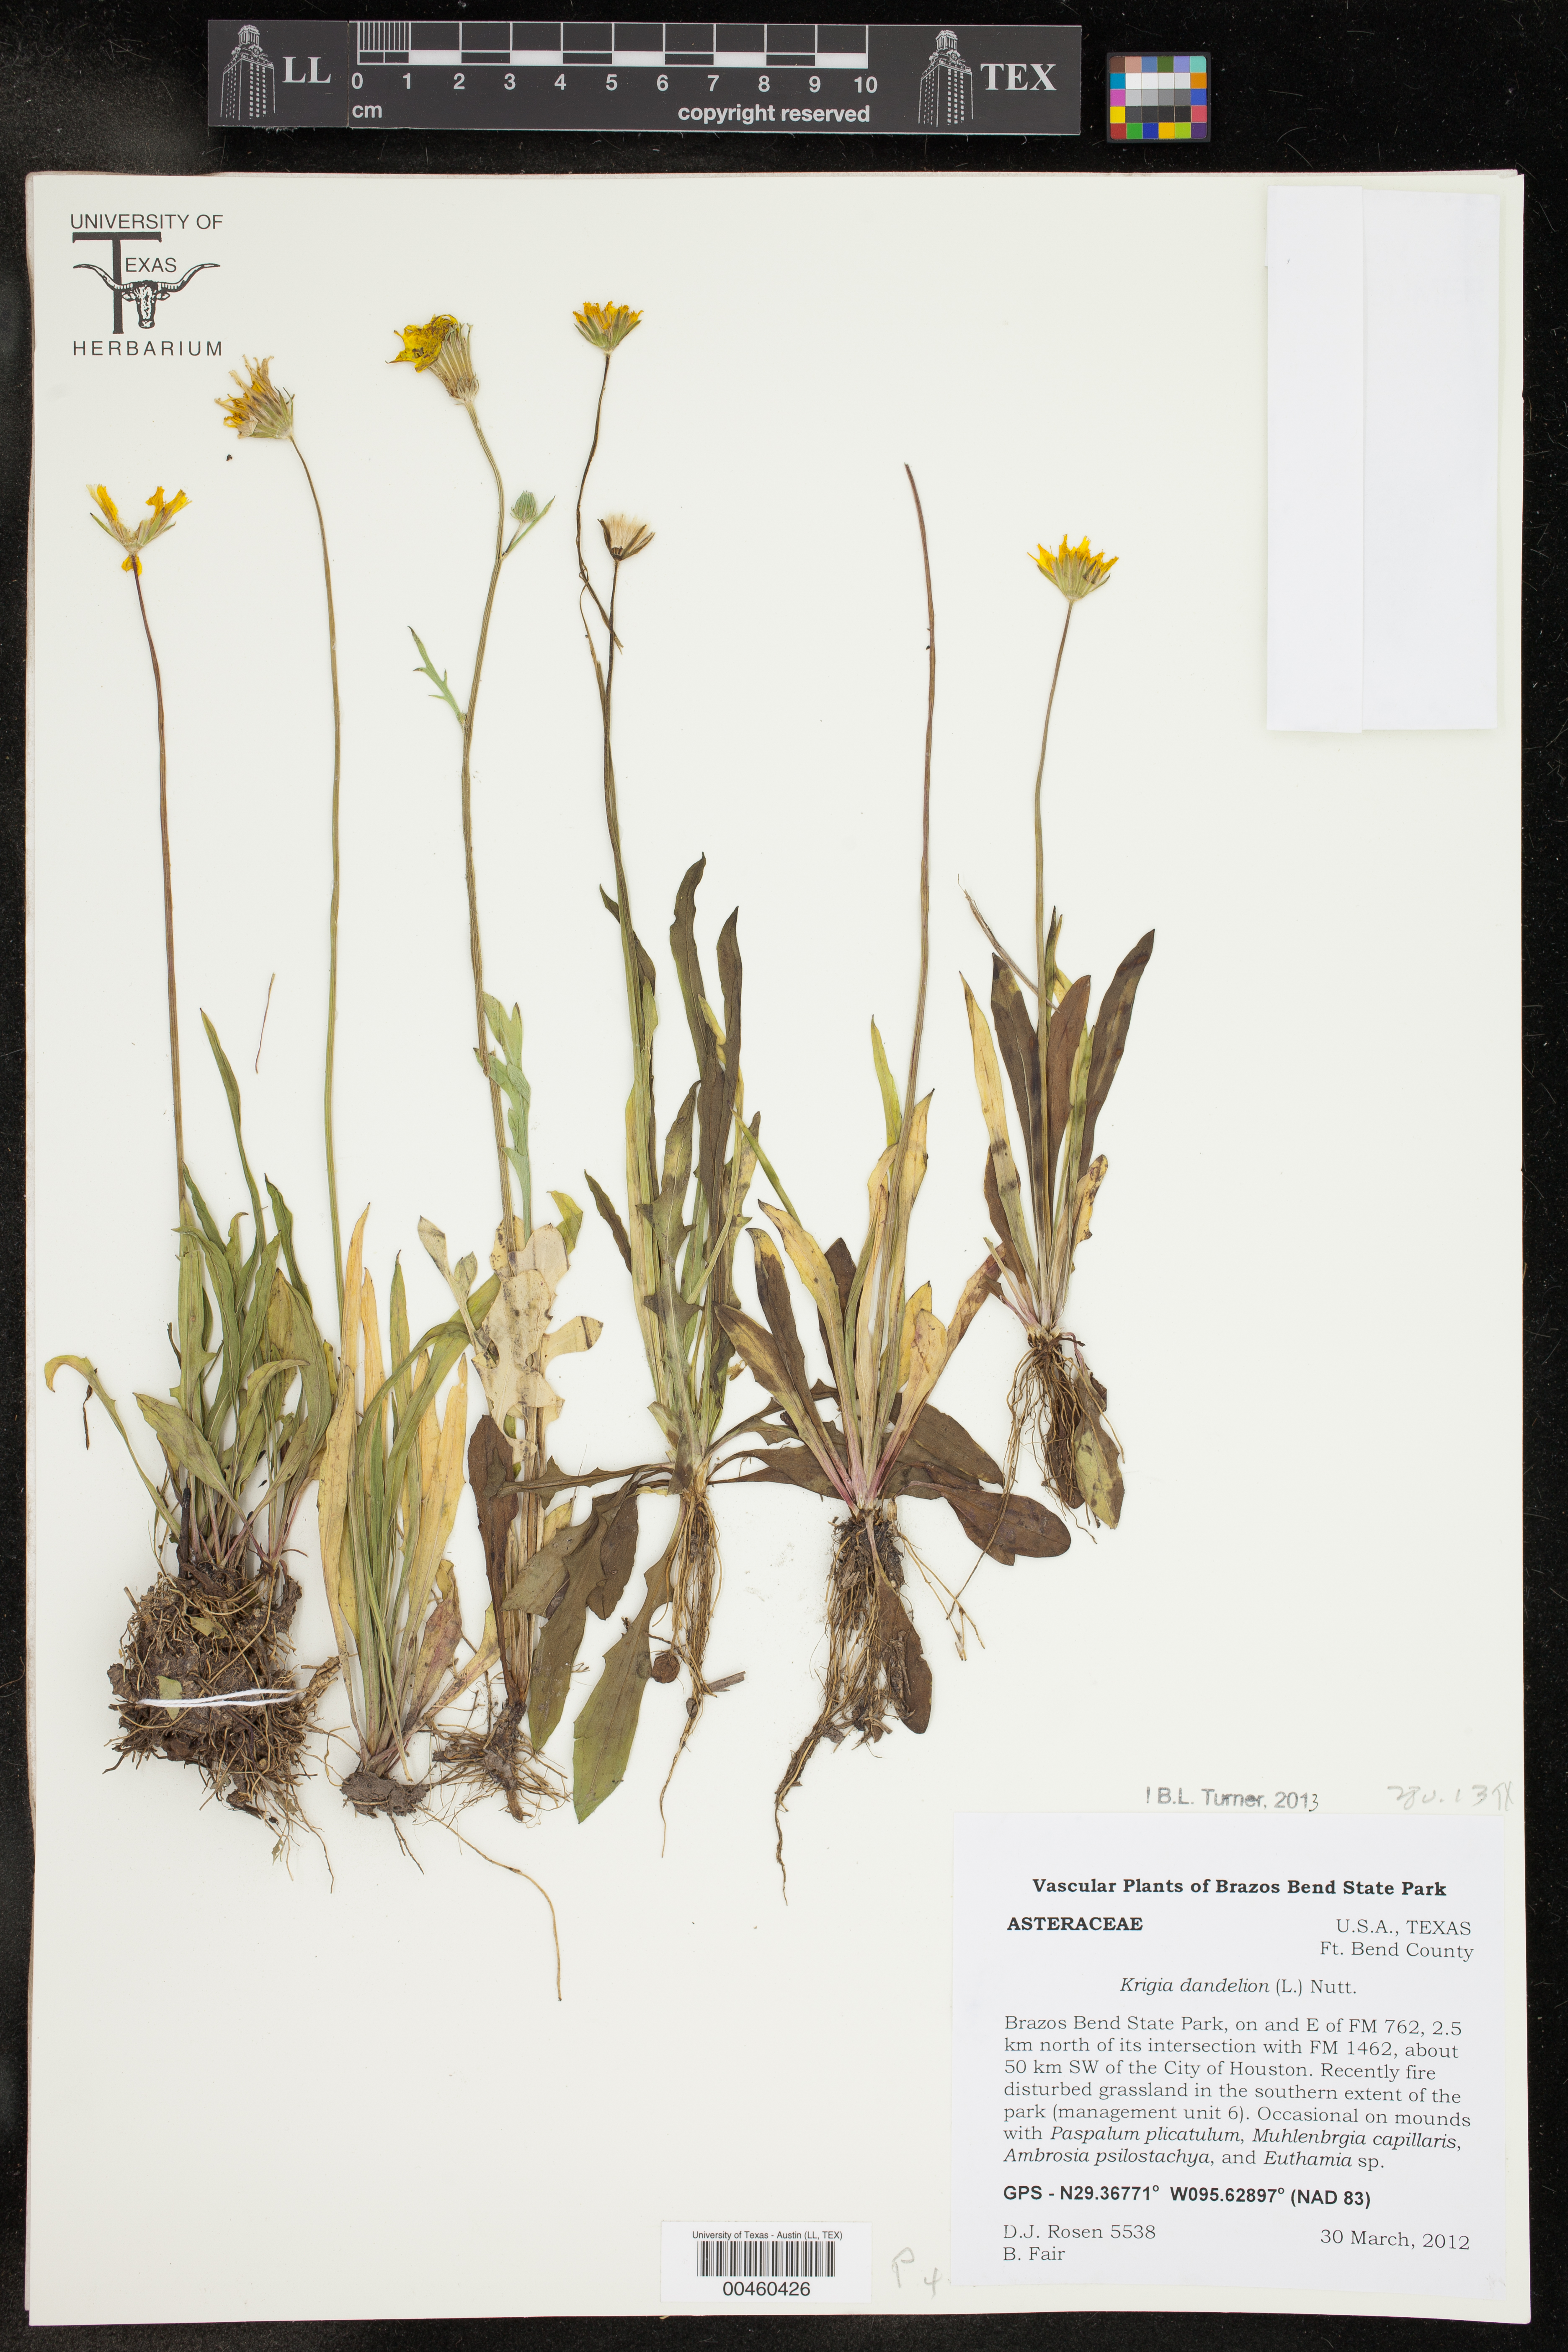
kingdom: Plantae
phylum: Tracheophyta
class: Magnoliopsida
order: Asterales
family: Asteraceae
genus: Krigia
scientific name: Krigia dandelion
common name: Colonial dwarf-dandelion
